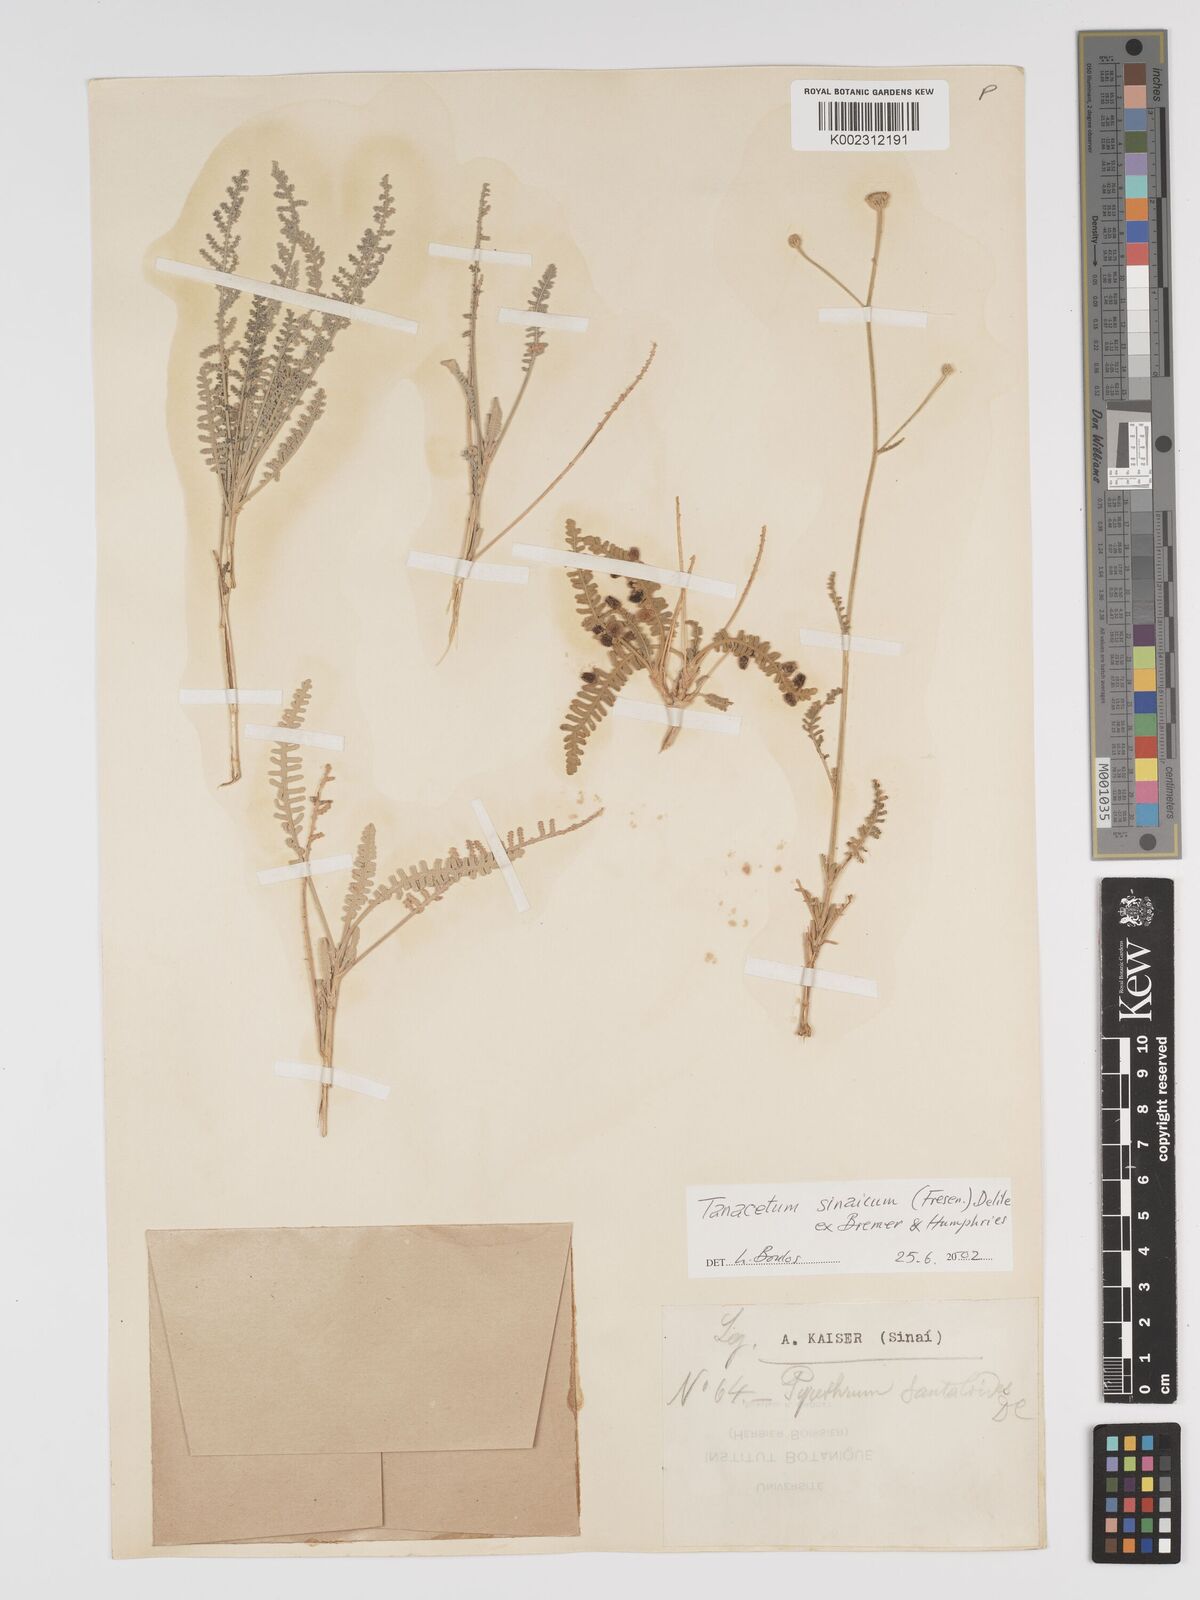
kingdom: Plantae
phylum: Tracheophyta
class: Magnoliopsida
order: Asterales
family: Asteraceae
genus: Tanacetum
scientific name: Tanacetum sinaicum
